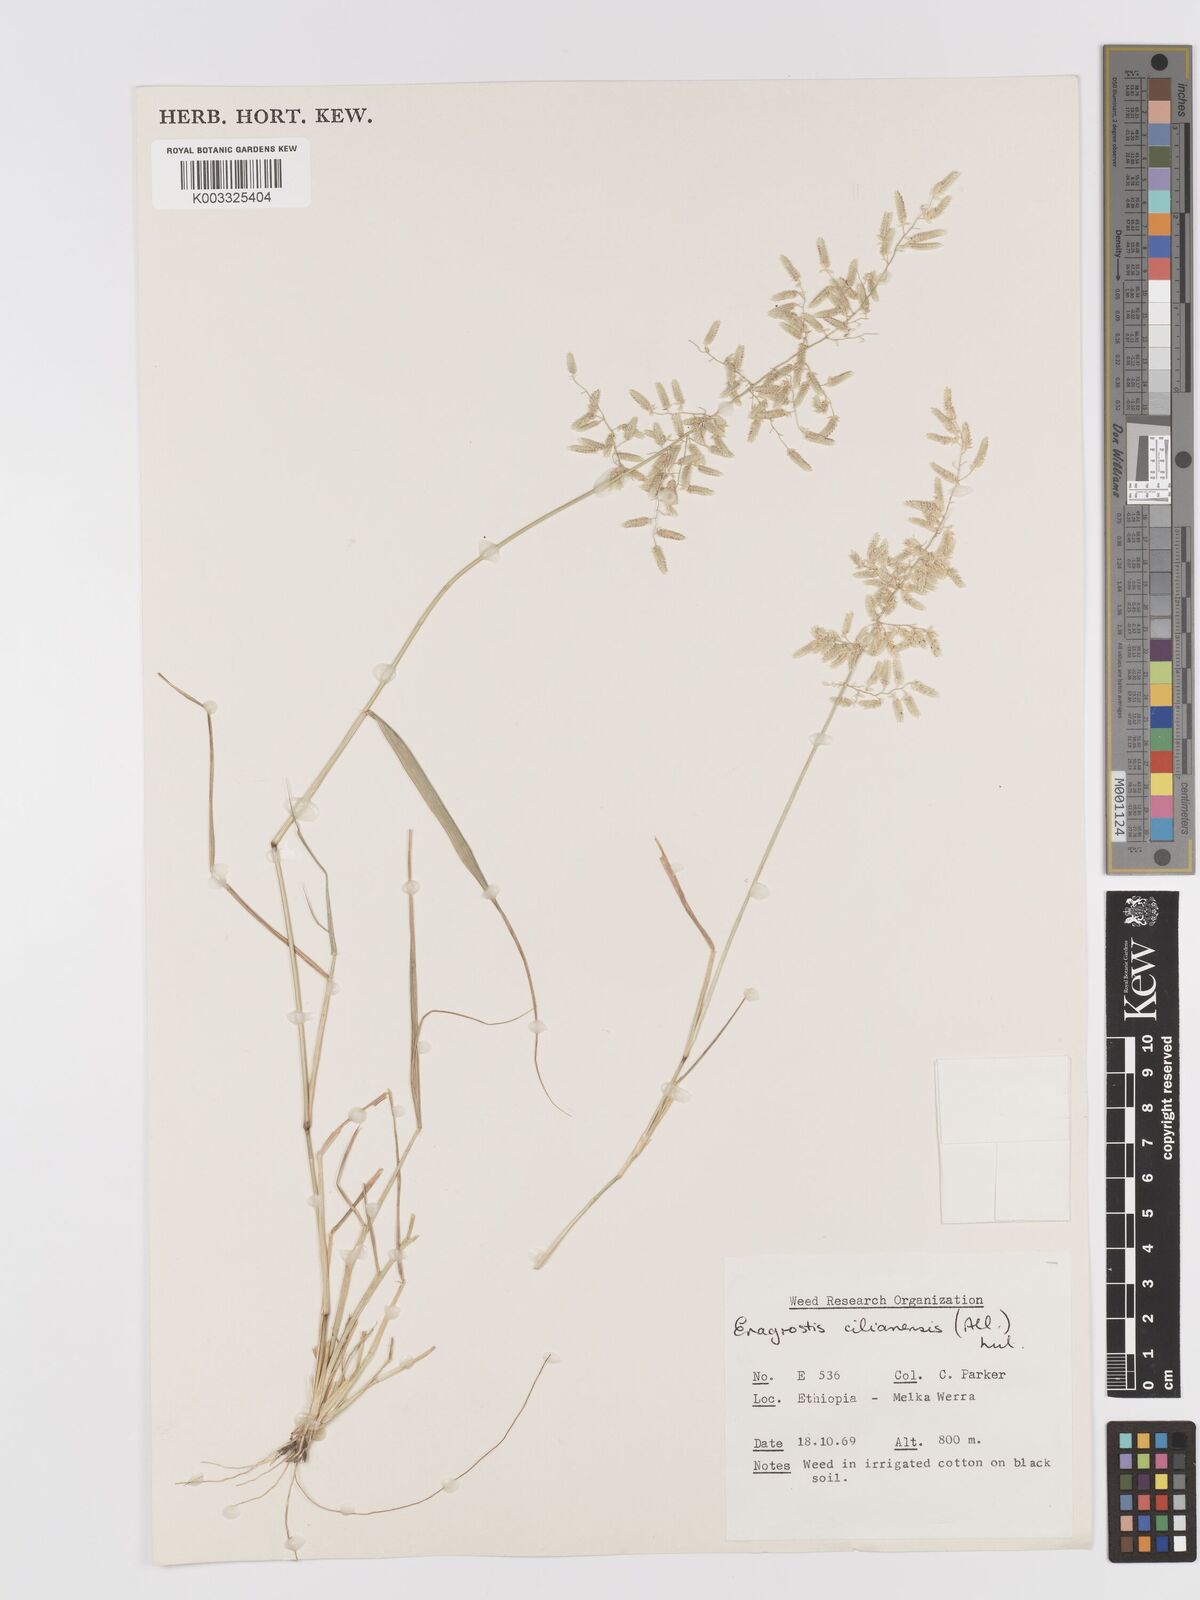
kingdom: Plantae
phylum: Tracheophyta
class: Liliopsida
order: Poales
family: Poaceae
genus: Eragrostis
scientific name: Eragrostis cilianensis
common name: Stinkgrass
